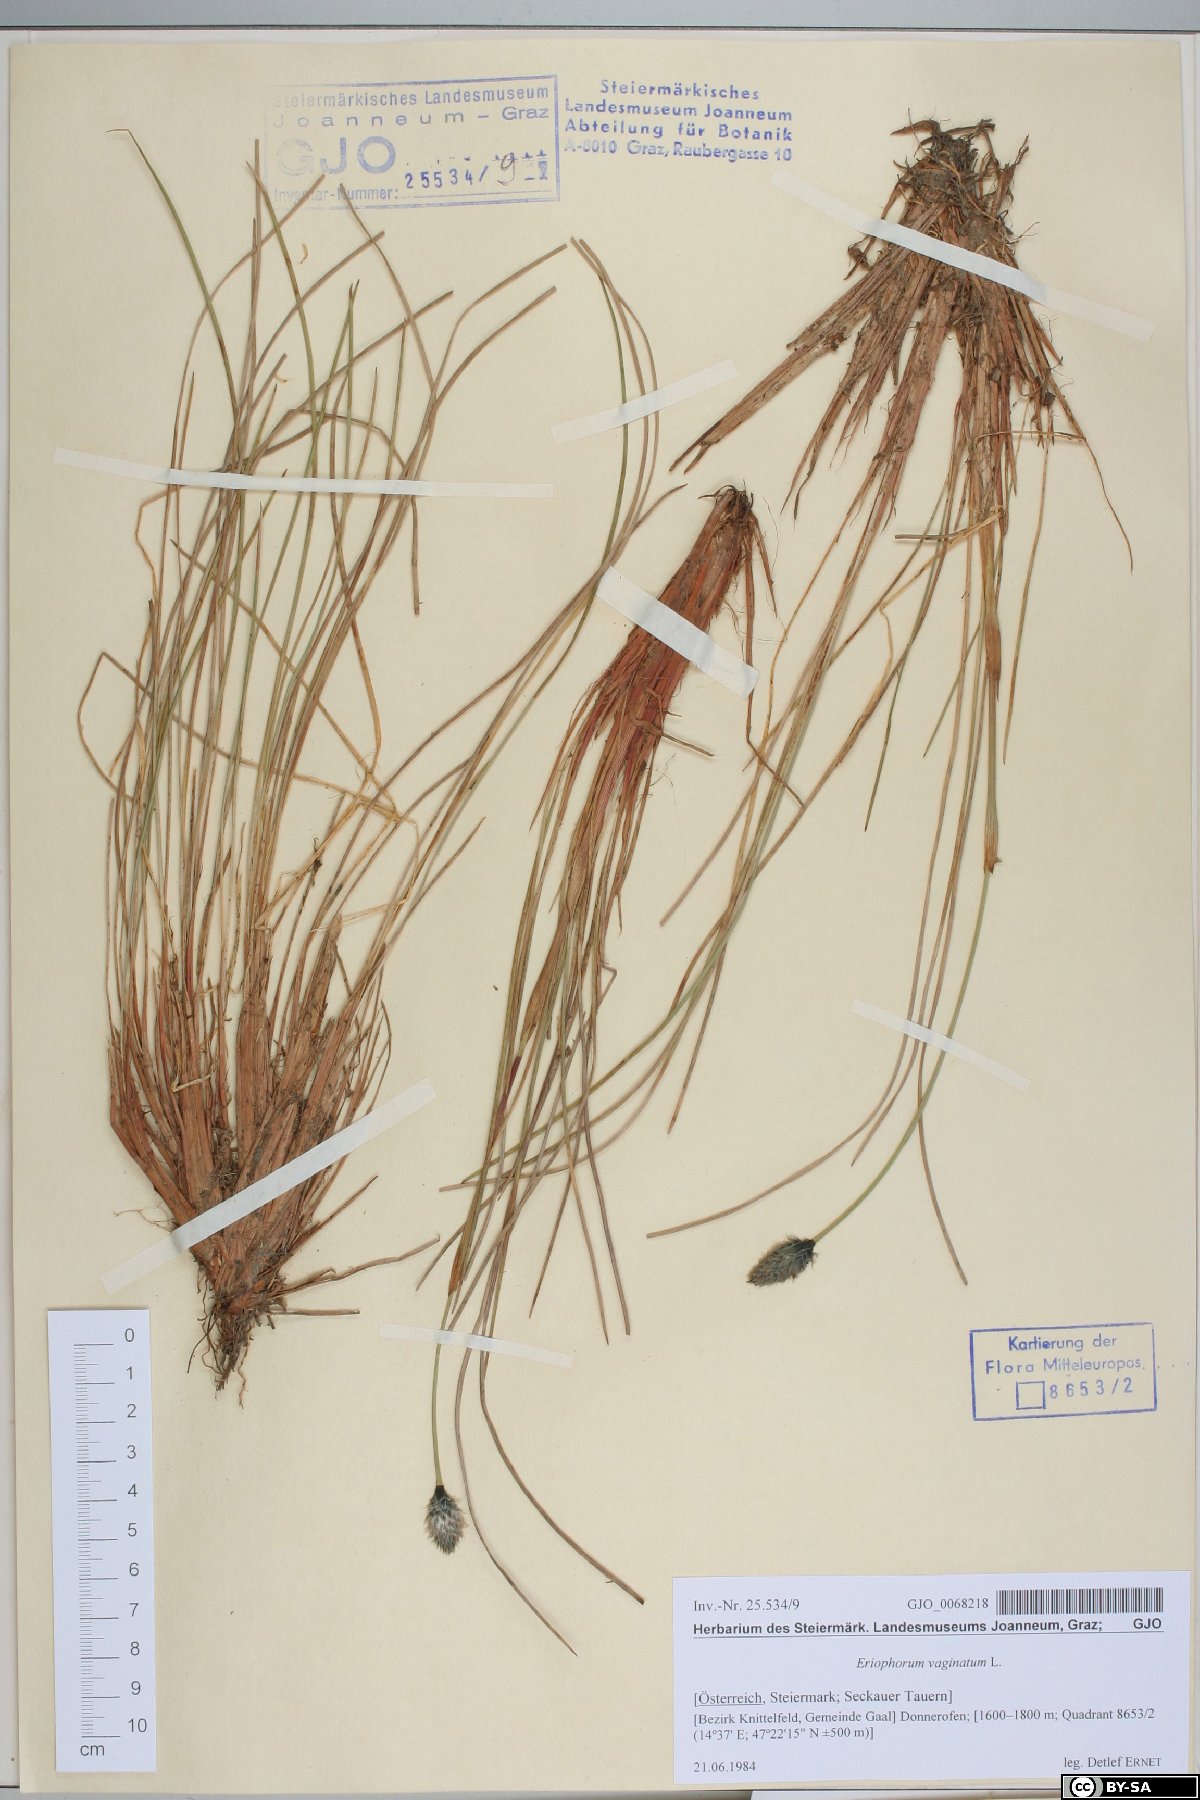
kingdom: Plantae
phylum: Tracheophyta
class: Liliopsida
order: Poales
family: Cyperaceae
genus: Eriophorum
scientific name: Eriophorum vaginatum
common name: Hare's-tail cottongrass
